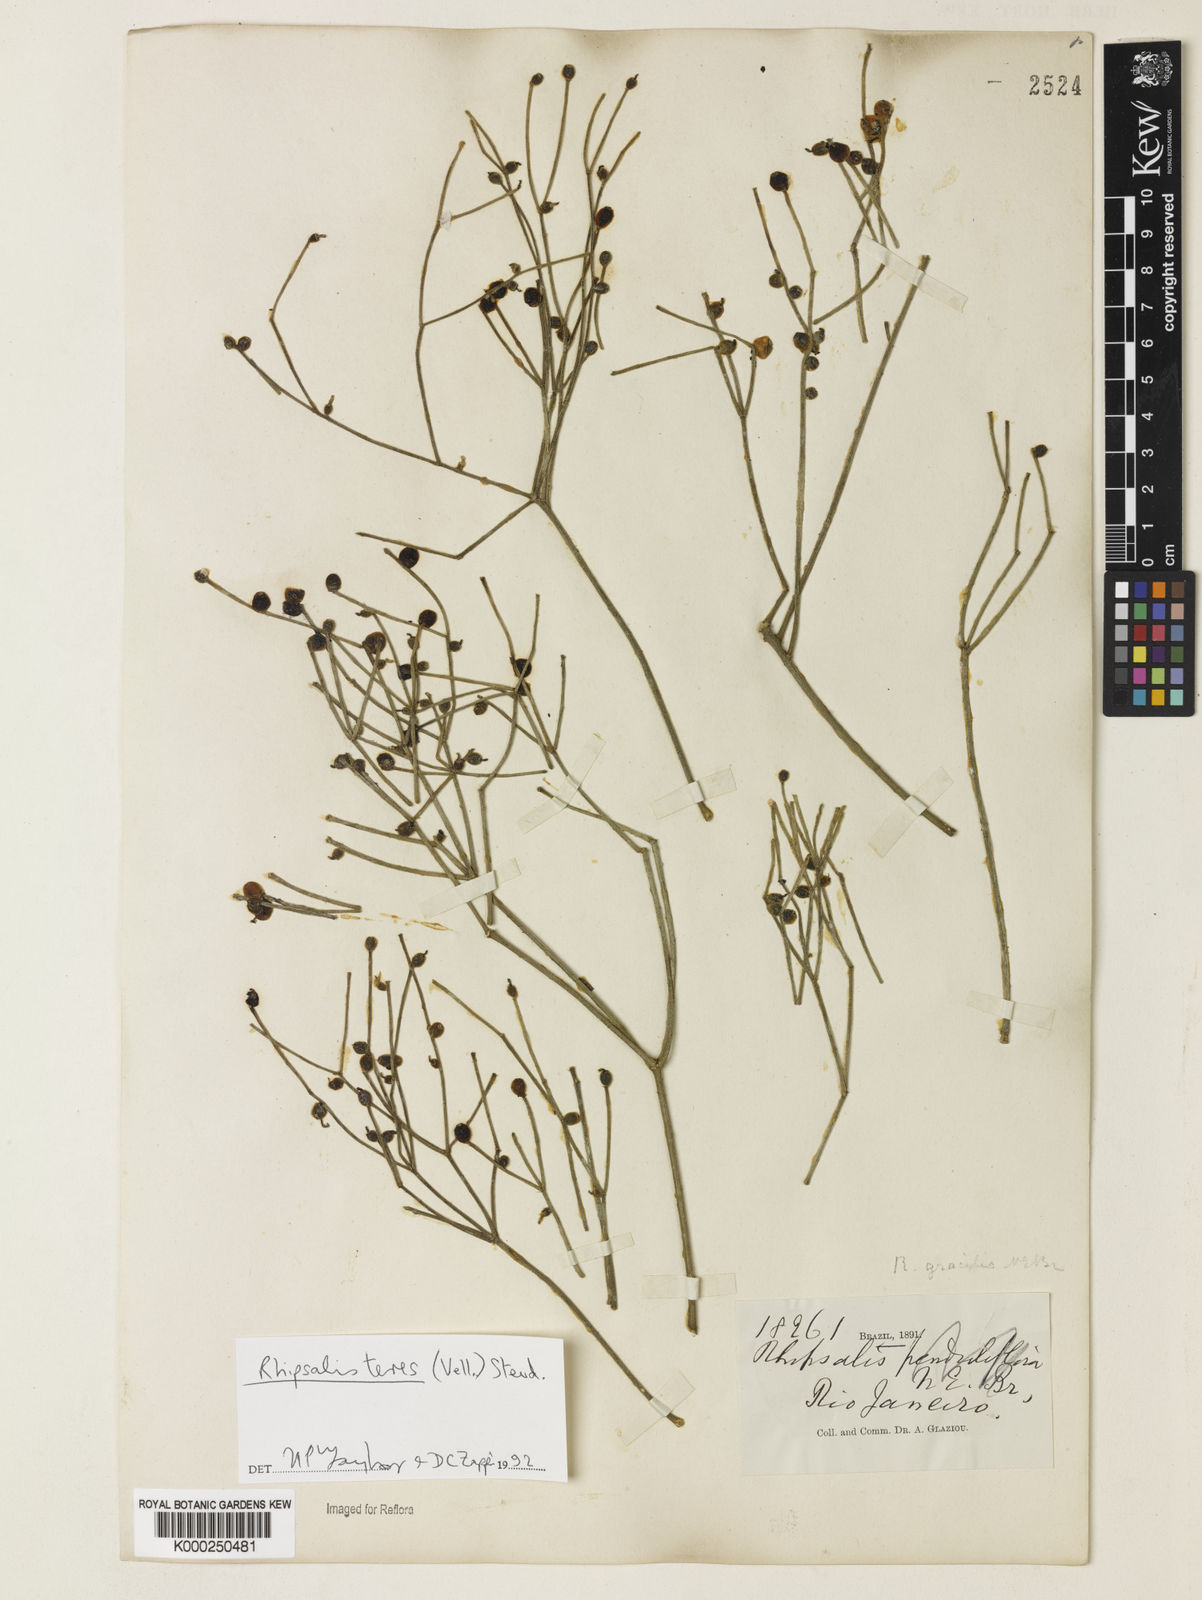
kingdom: Plantae
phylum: Tracheophyta
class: Magnoliopsida
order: Caryophyllales
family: Cactaceae
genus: Rhipsalis
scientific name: Rhipsalis teres
